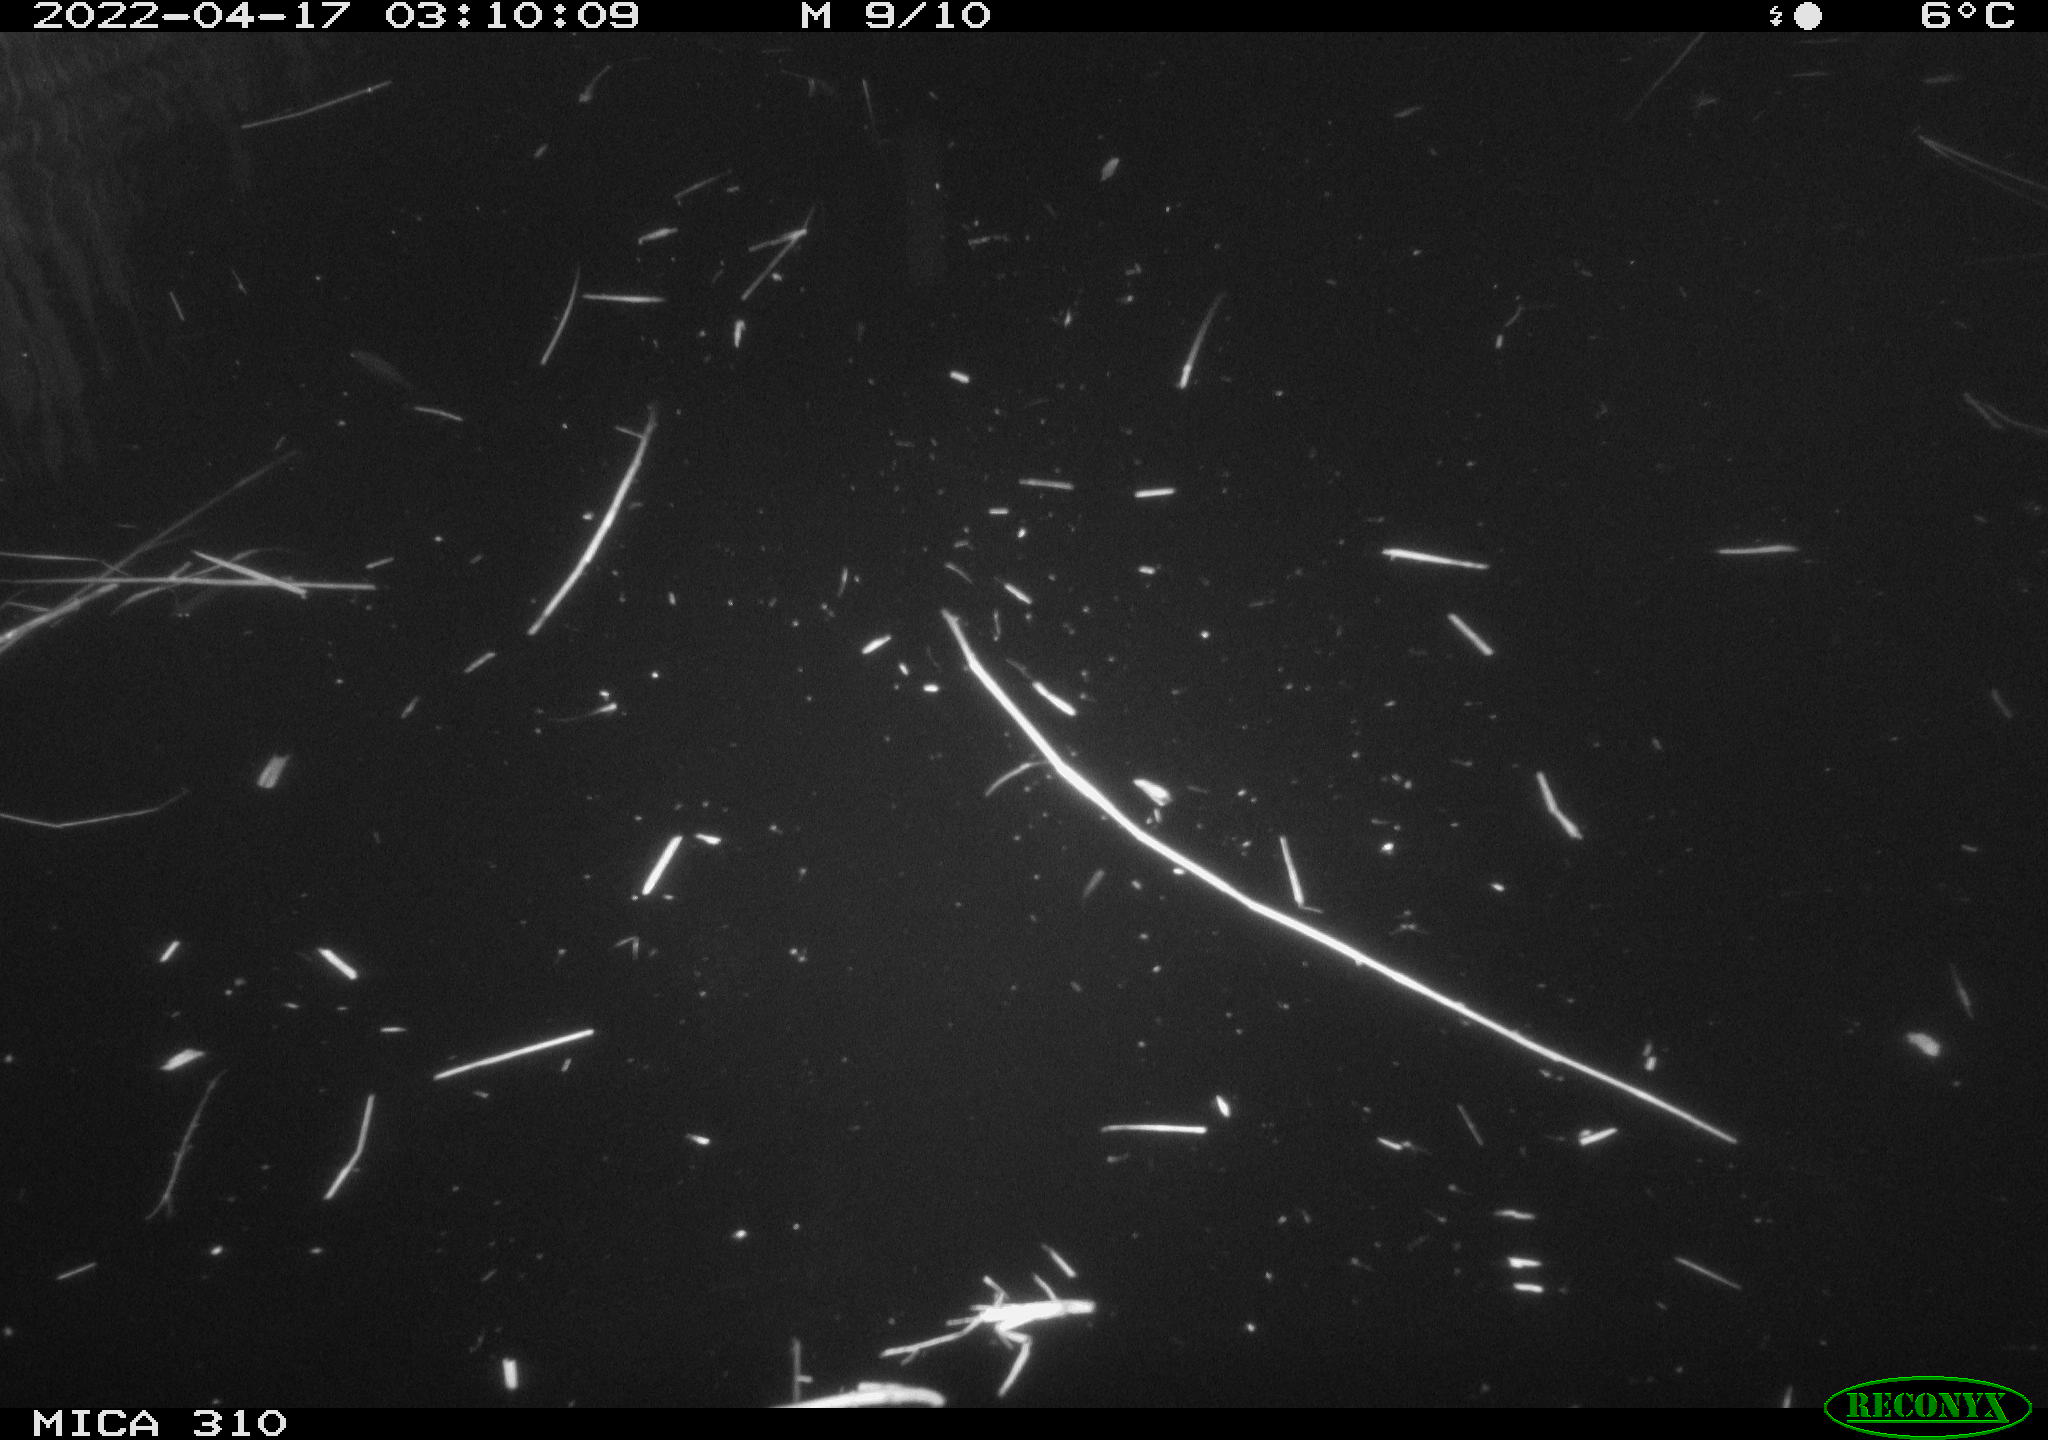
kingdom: Animalia
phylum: Chordata
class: Aves
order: Anseriformes
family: Anatidae
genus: Anas
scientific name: Anas platyrhynchos
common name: Mallard
